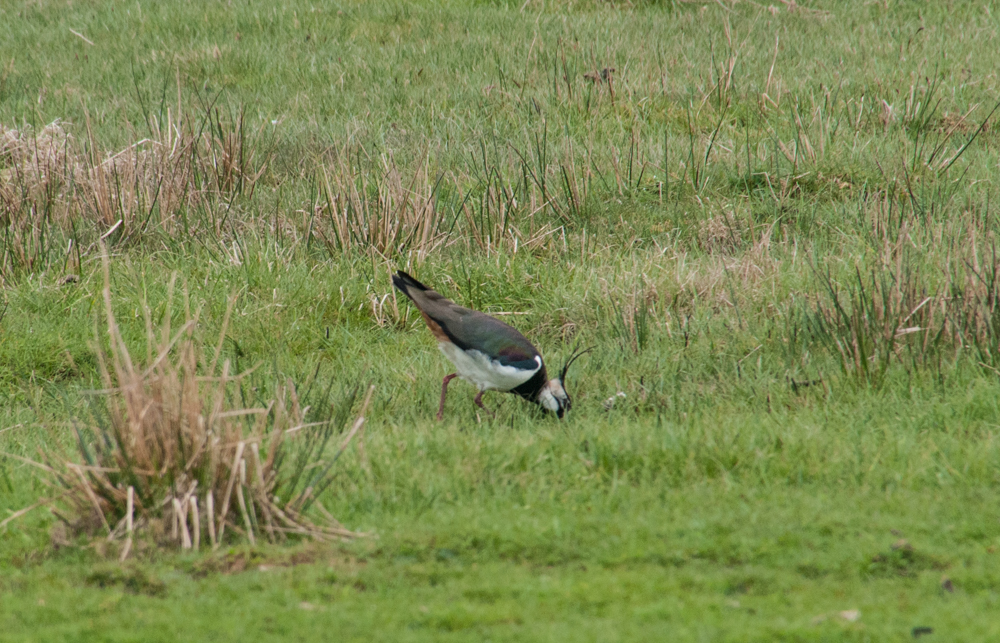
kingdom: Animalia
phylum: Chordata
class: Aves
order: Charadriiformes
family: Charadriidae
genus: Vanellus
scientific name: Vanellus vanellus
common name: Northern lapwing
